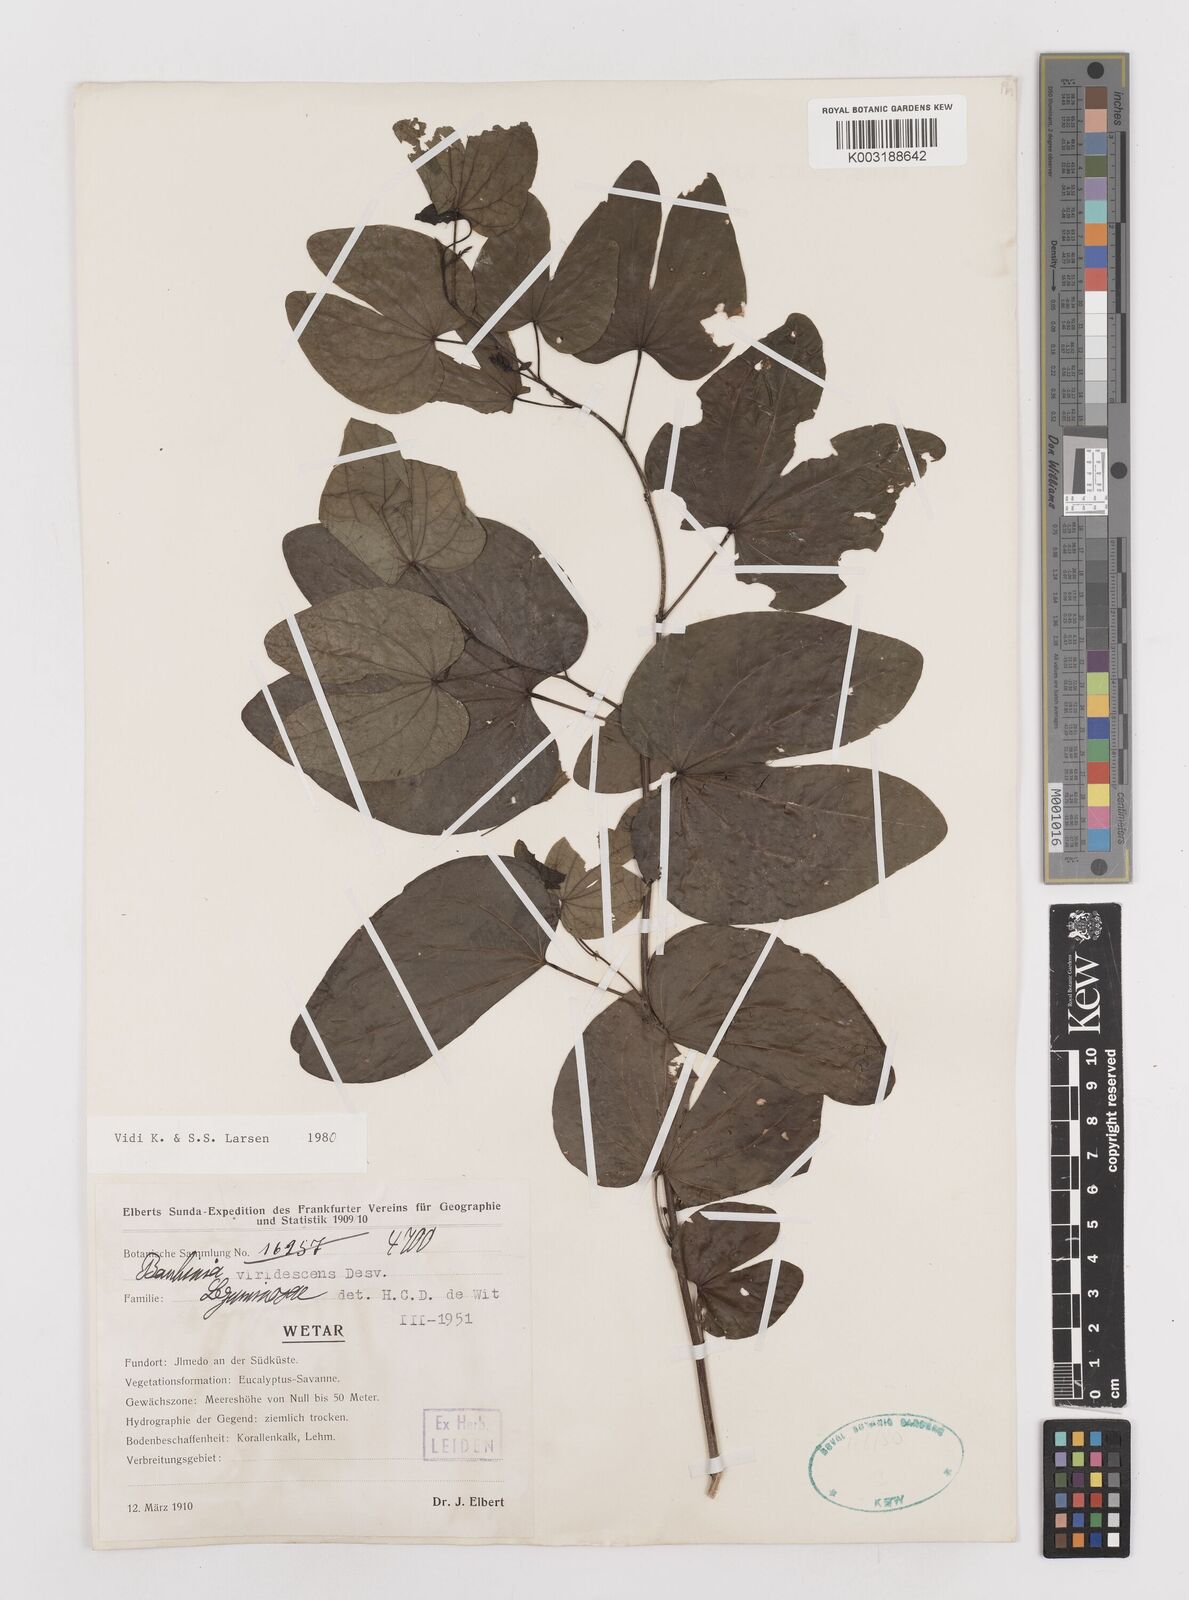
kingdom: Plantae
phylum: Tracheophyta
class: Magnoliopsida
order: Fabales
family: Fabaceae
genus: Bauhinia
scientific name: Bauhinia viridescens
